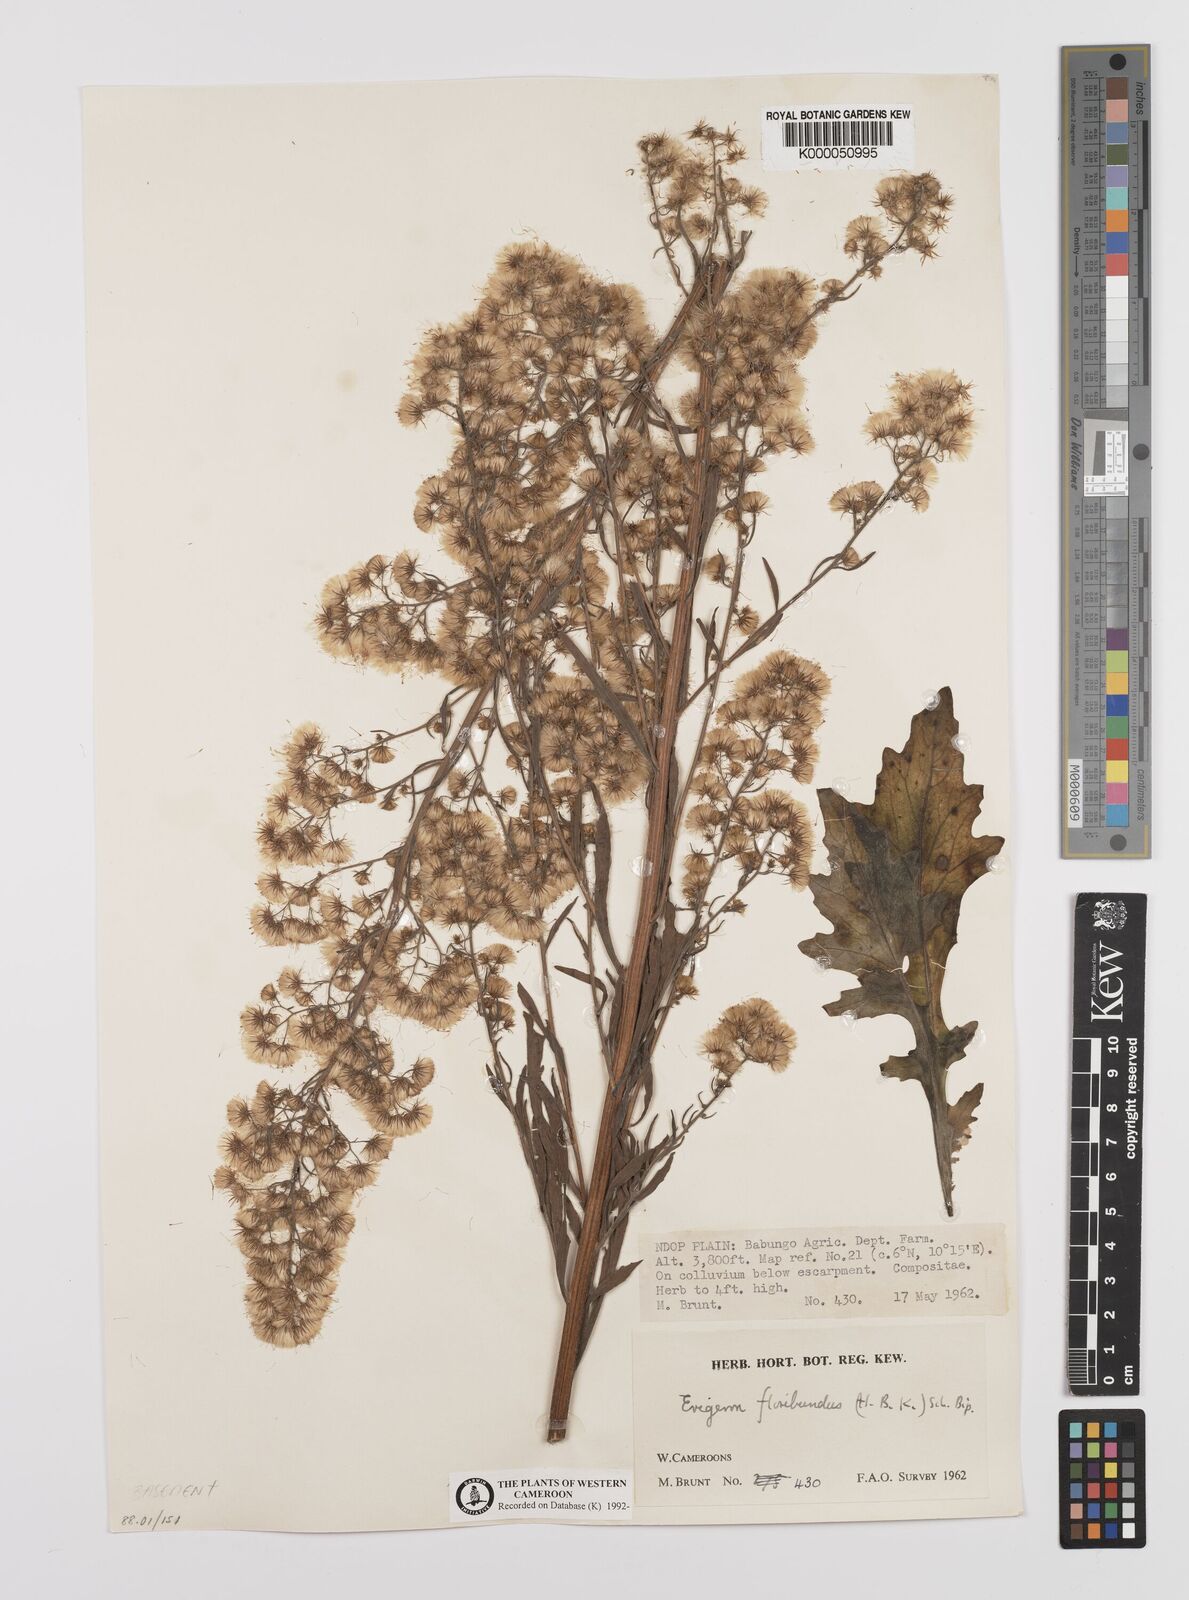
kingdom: Plantae
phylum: Tracheophyta
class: Magnoliopsida
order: Asterales
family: Asteraceae
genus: Erigeron
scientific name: Erigeron sumatrensis
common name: Daisy
